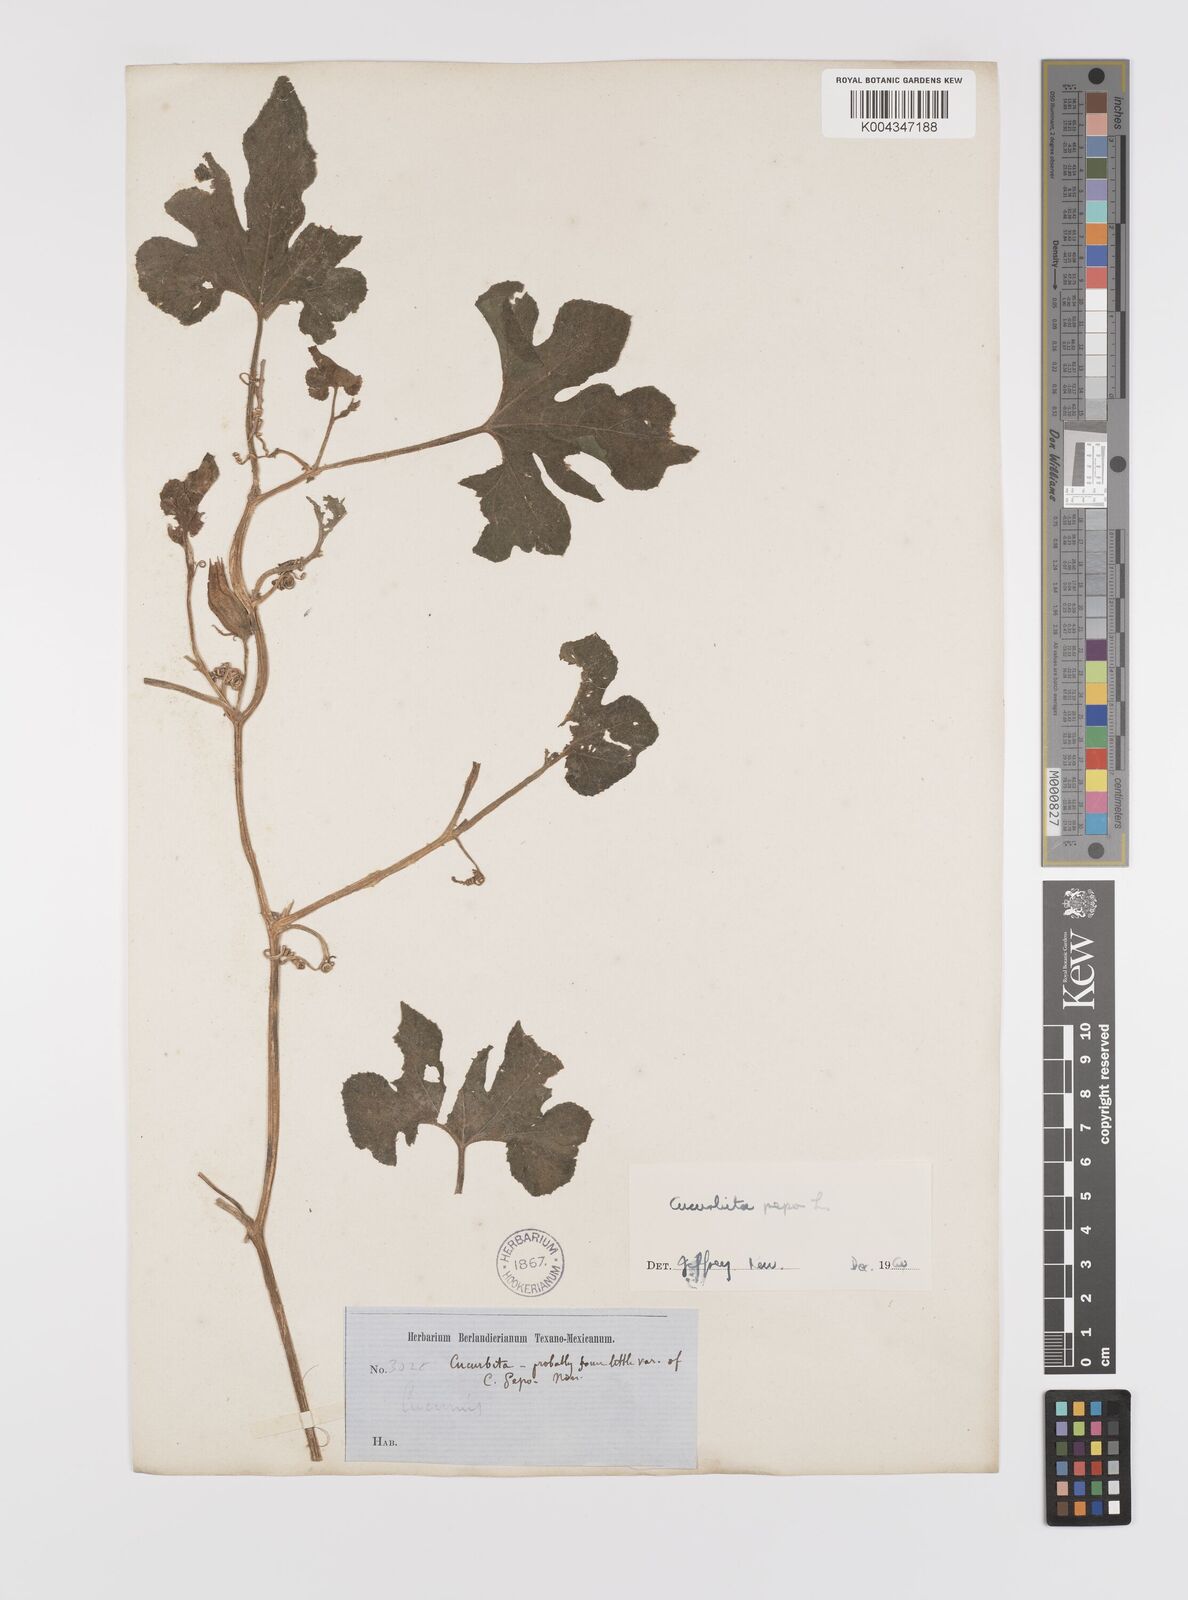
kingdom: Plantae
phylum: Tracheophyta
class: Magnoliopsida
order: Cucurbitales
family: Cucurbitaceae
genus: Cucurbita
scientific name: Cucurbita palmata
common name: Coyote-melon
